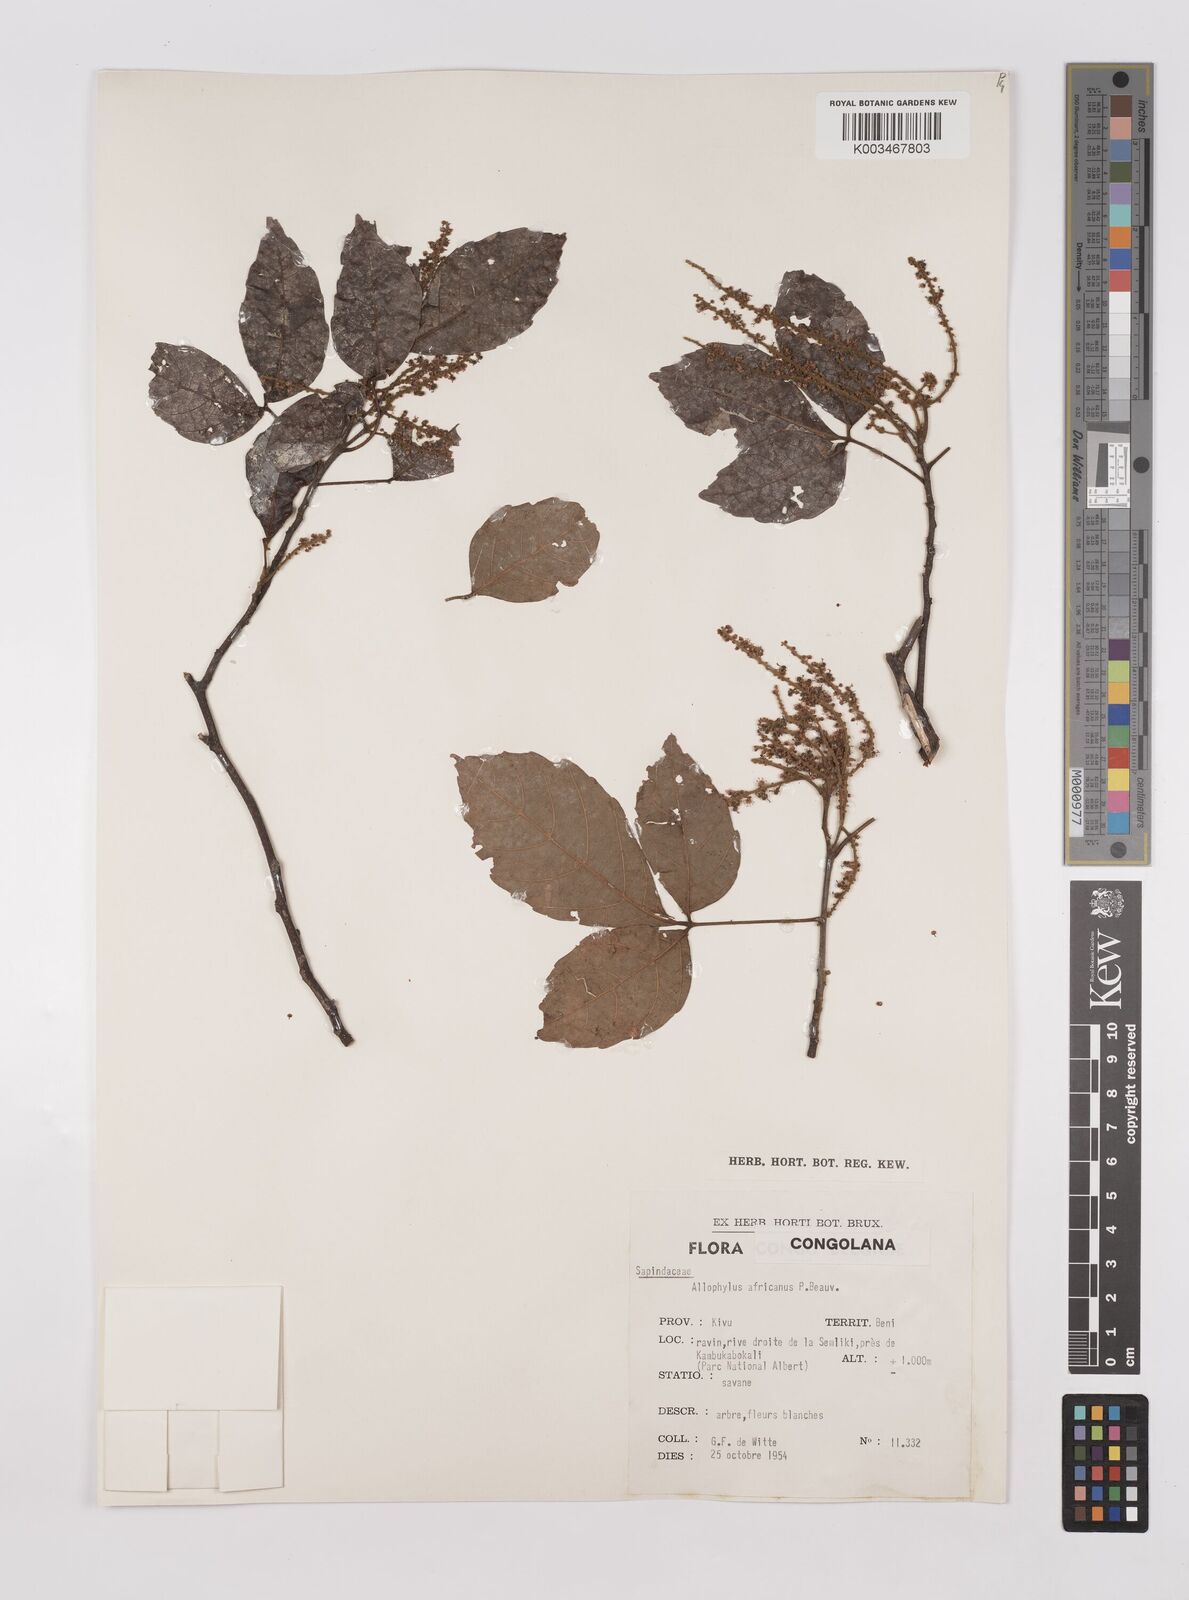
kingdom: Plantae
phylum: Tracheophyta
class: Magnoliopsida
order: Sapindales
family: Sapindaceae
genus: Allophylus
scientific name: Allophylus africanus
